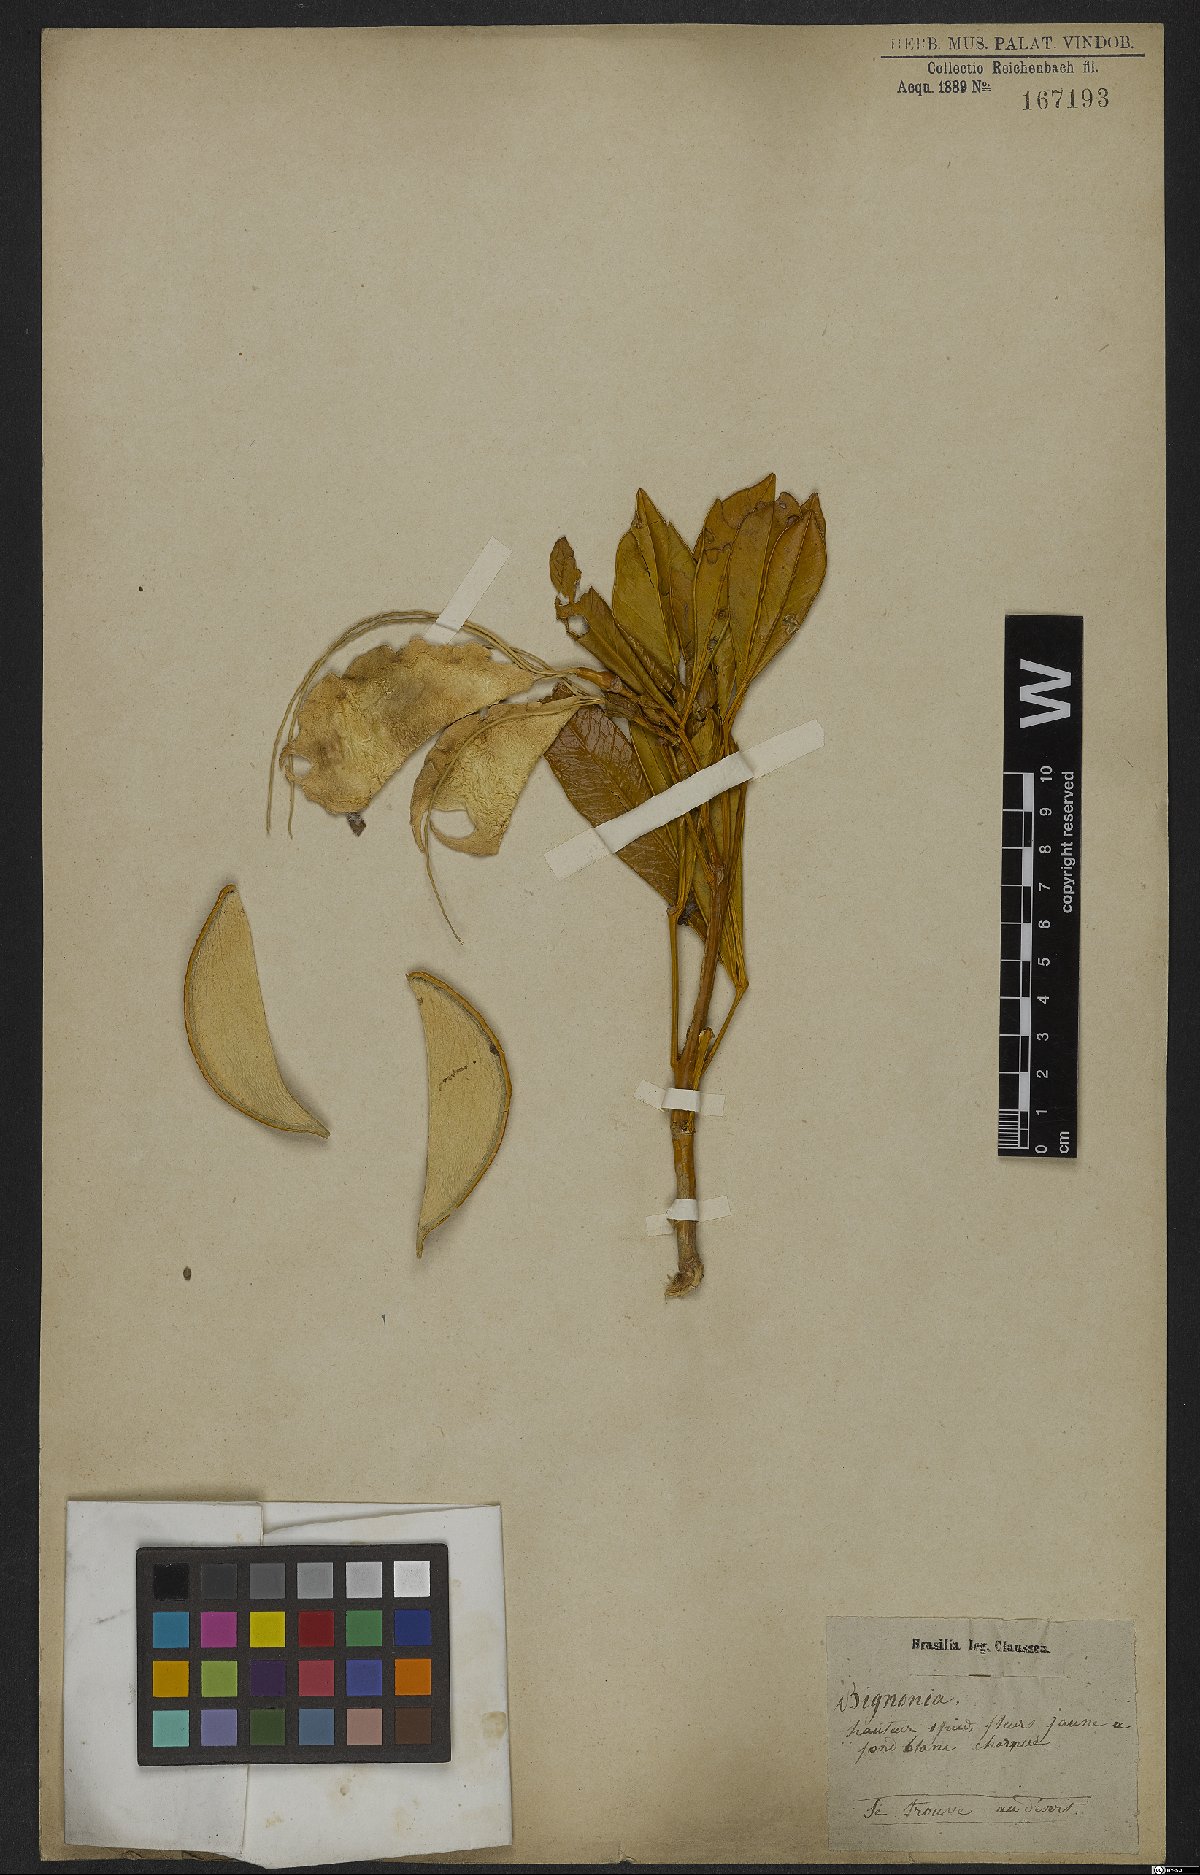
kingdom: Plantae
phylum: Tracheophyta
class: Magnoliopsida
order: Lamiales
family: Bignoniaceae
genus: Anemopaegma
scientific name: Anemopaegma glaucum
